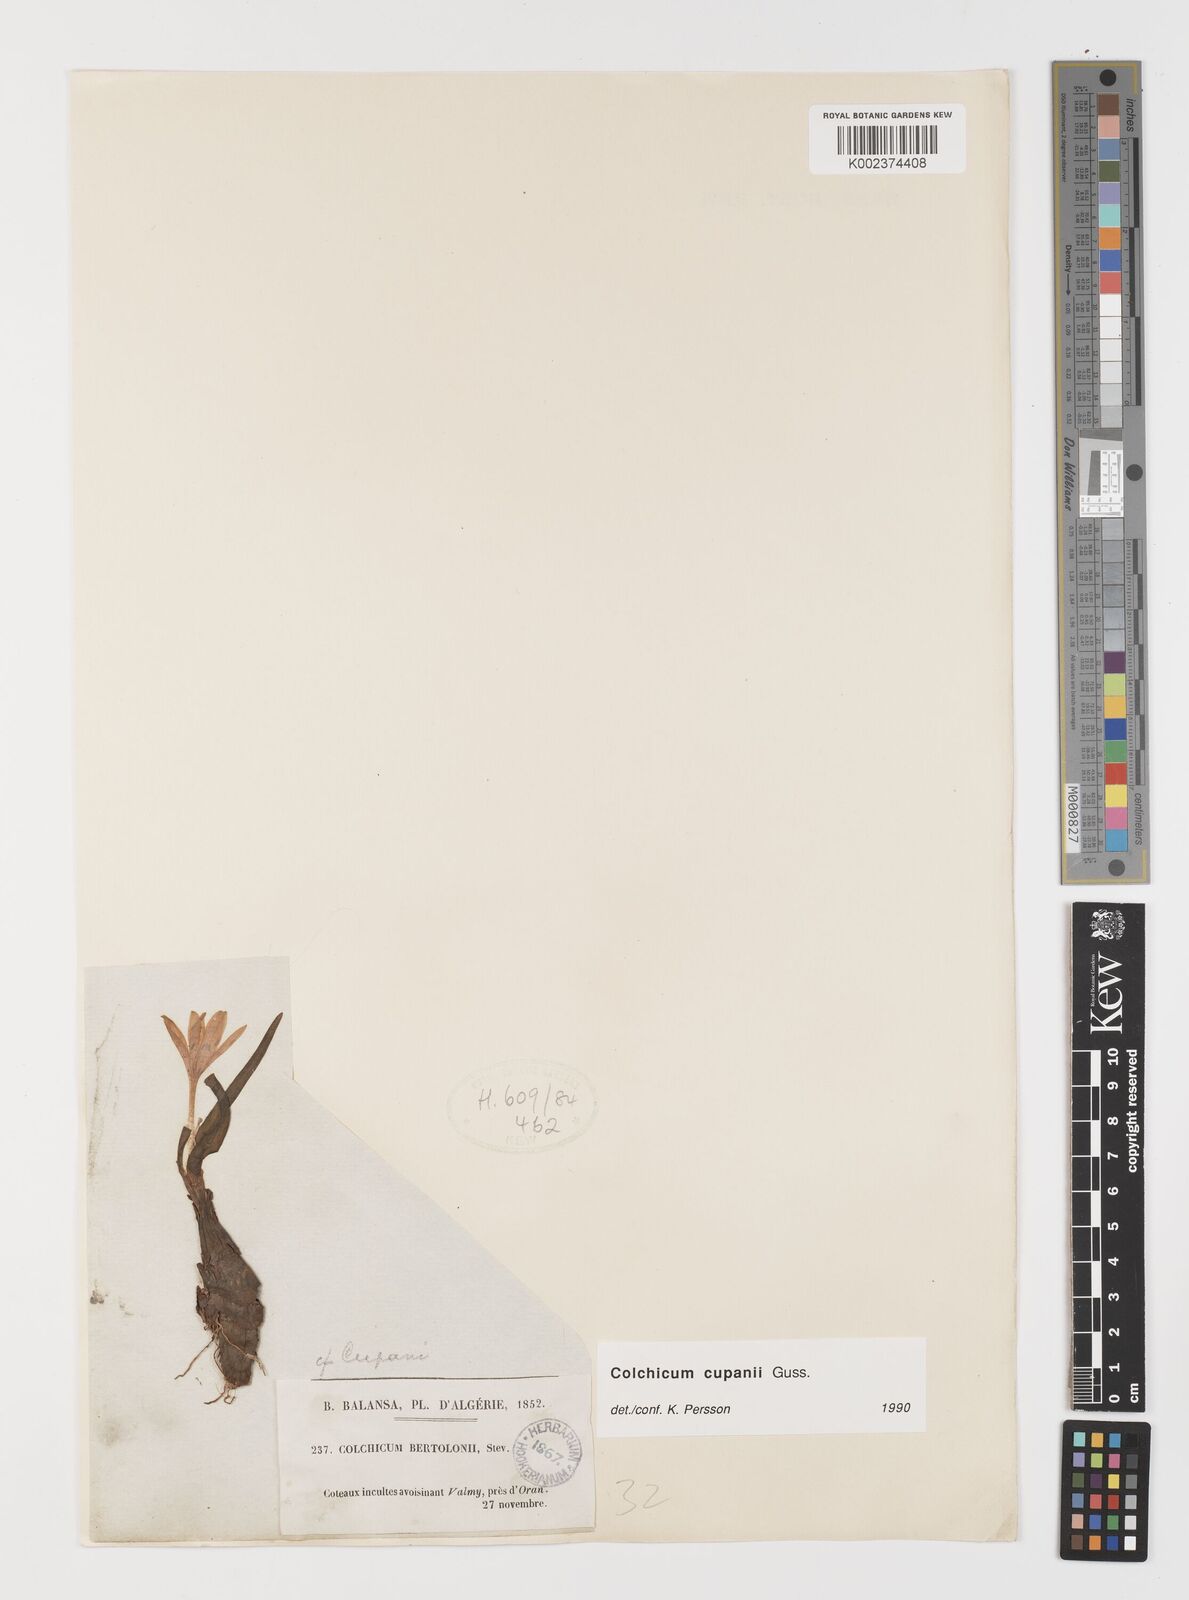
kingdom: Plantae
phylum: Tracheophyta
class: Liliopsida
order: Liliales
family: Colchicaceae
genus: Colchicum
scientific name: Colchicum cupanii
